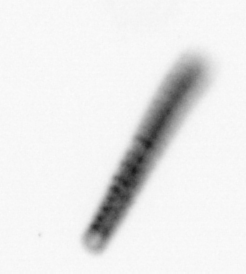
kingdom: Chromista
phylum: Ochrophyta
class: Bacillariophyceae
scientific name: Bacillariophyceae
